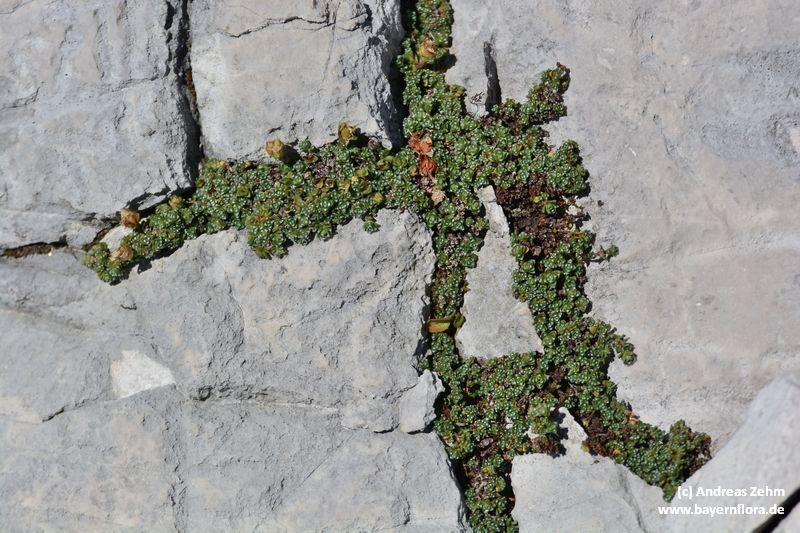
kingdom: Plantae
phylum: Tracheophyta
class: Magnoliopsida
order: Saxifragales
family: Saxifragaceae
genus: Saxifraga
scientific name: Saxifraga oppositifolia
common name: Purple saxifrage
